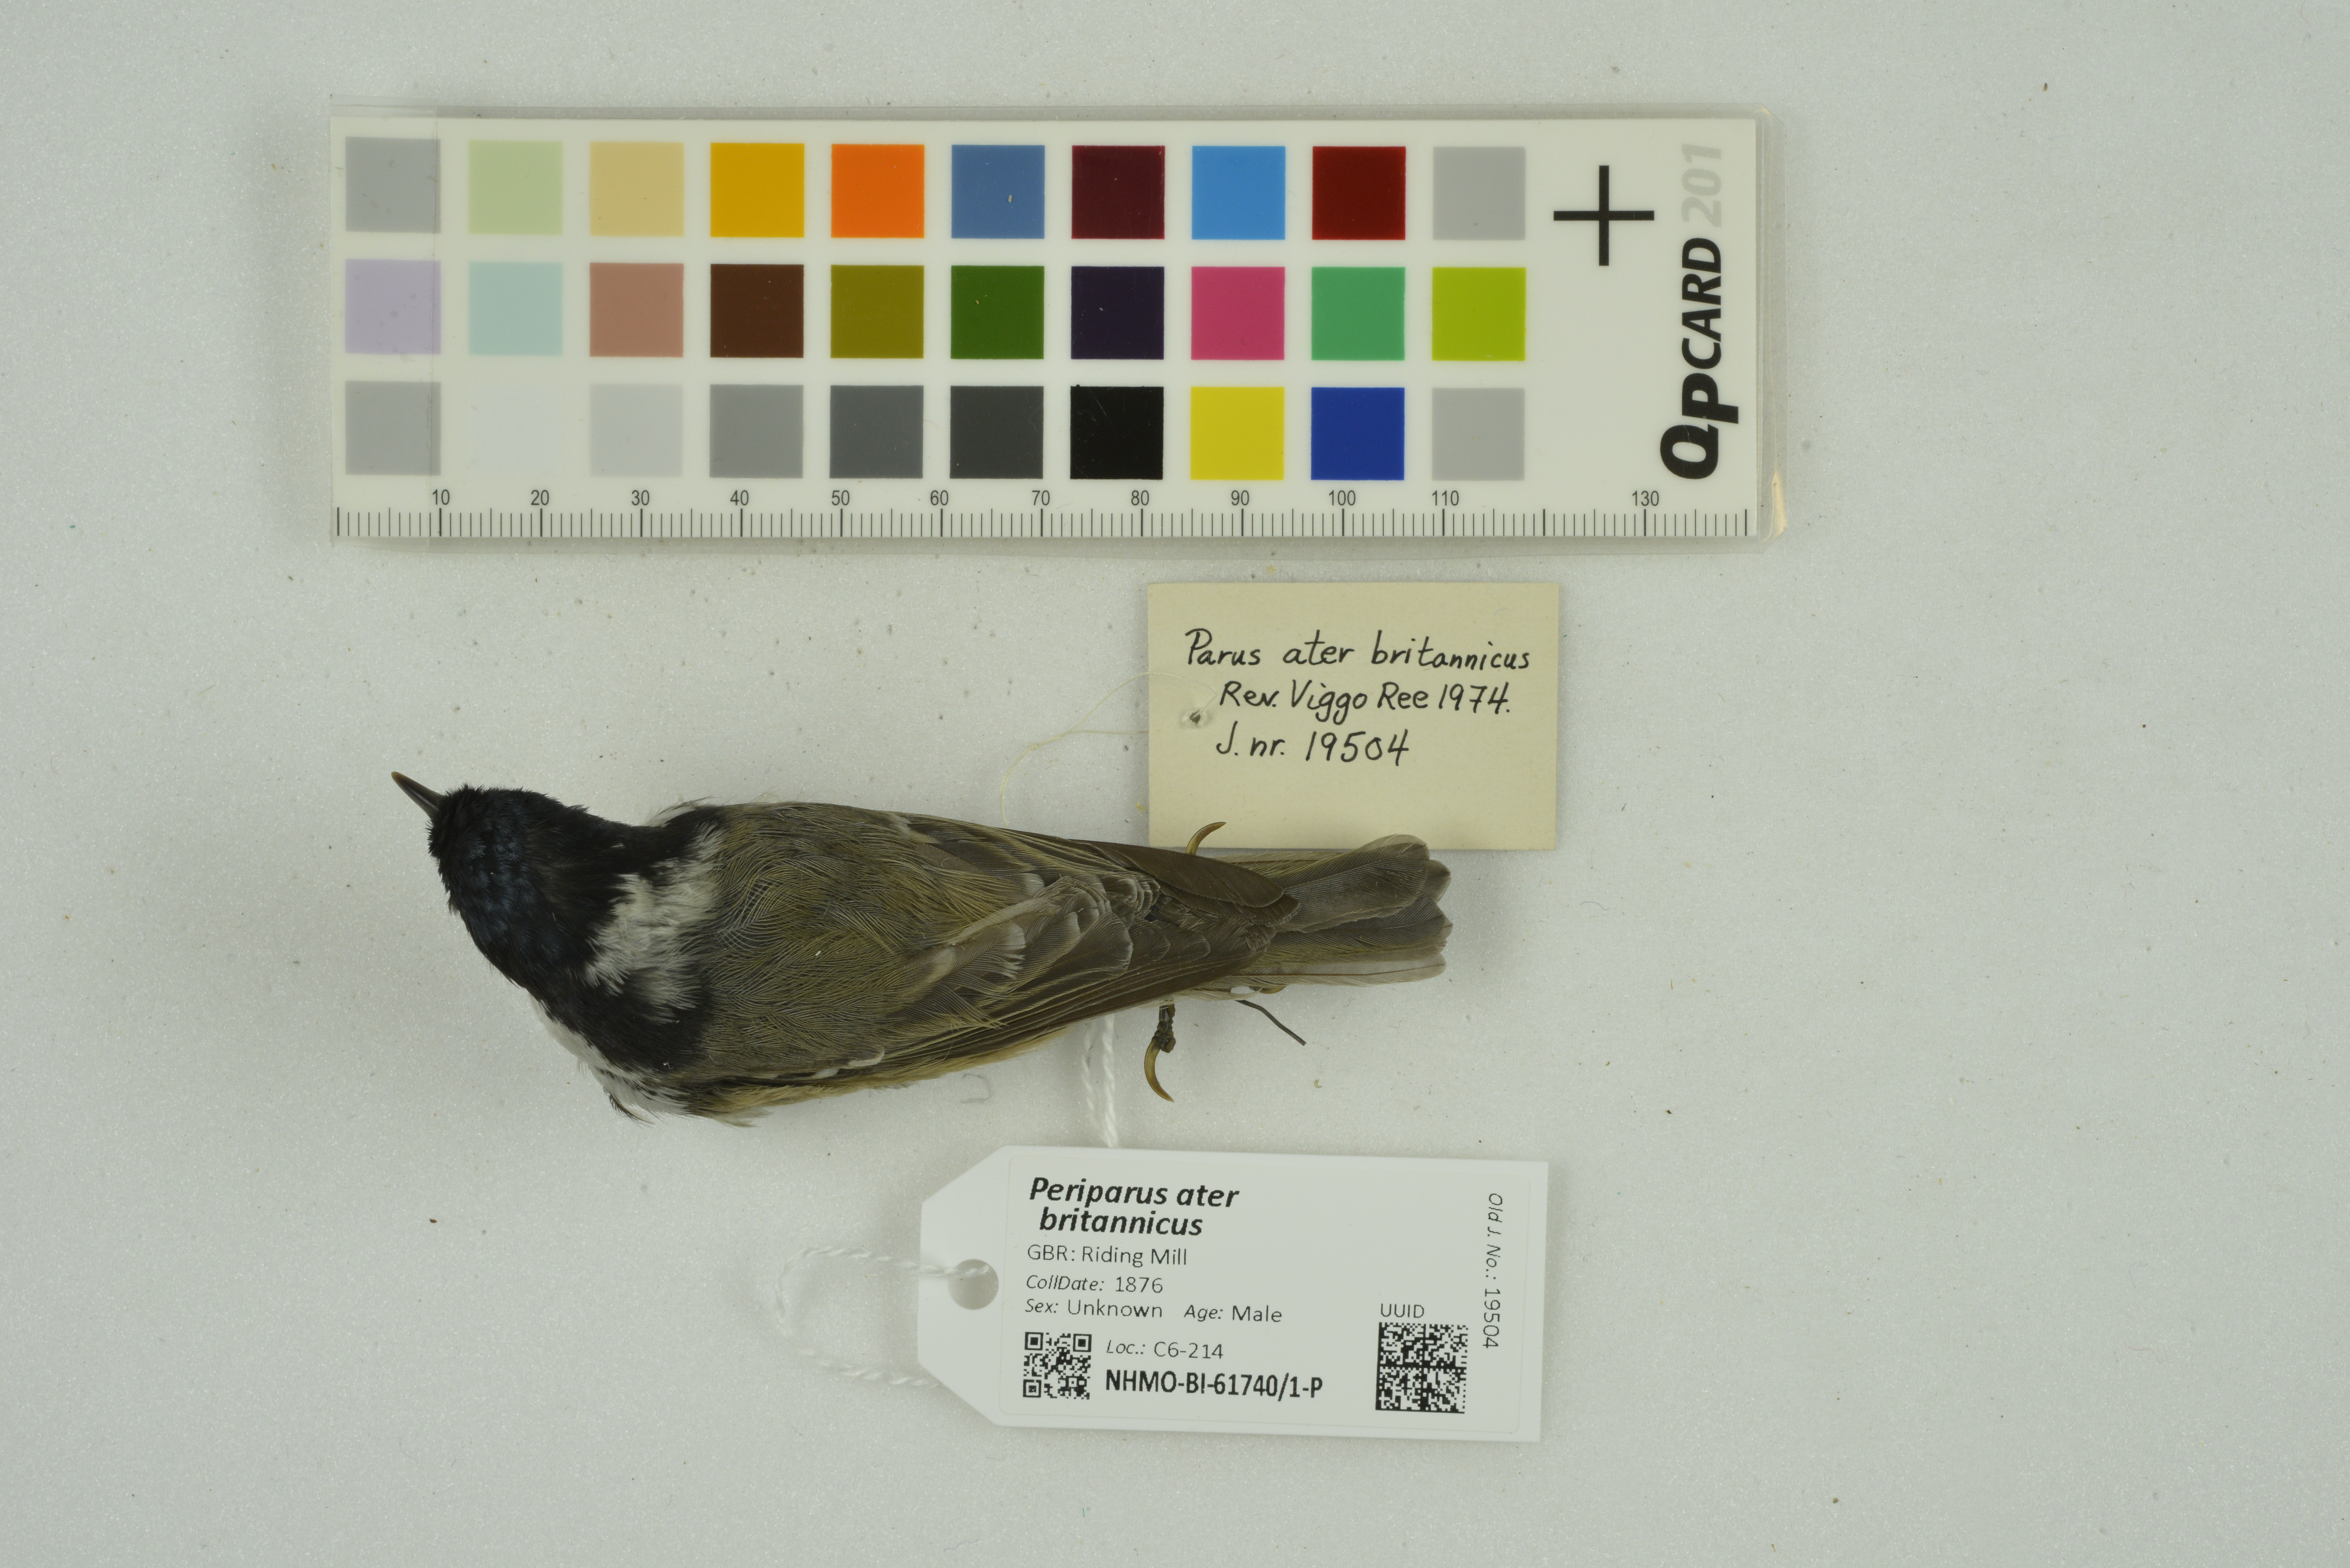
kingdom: Animalia
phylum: Chordata
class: Aves
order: Passeriformes
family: Paridae
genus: Periparus
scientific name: Periparus ater
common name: Coal tit
